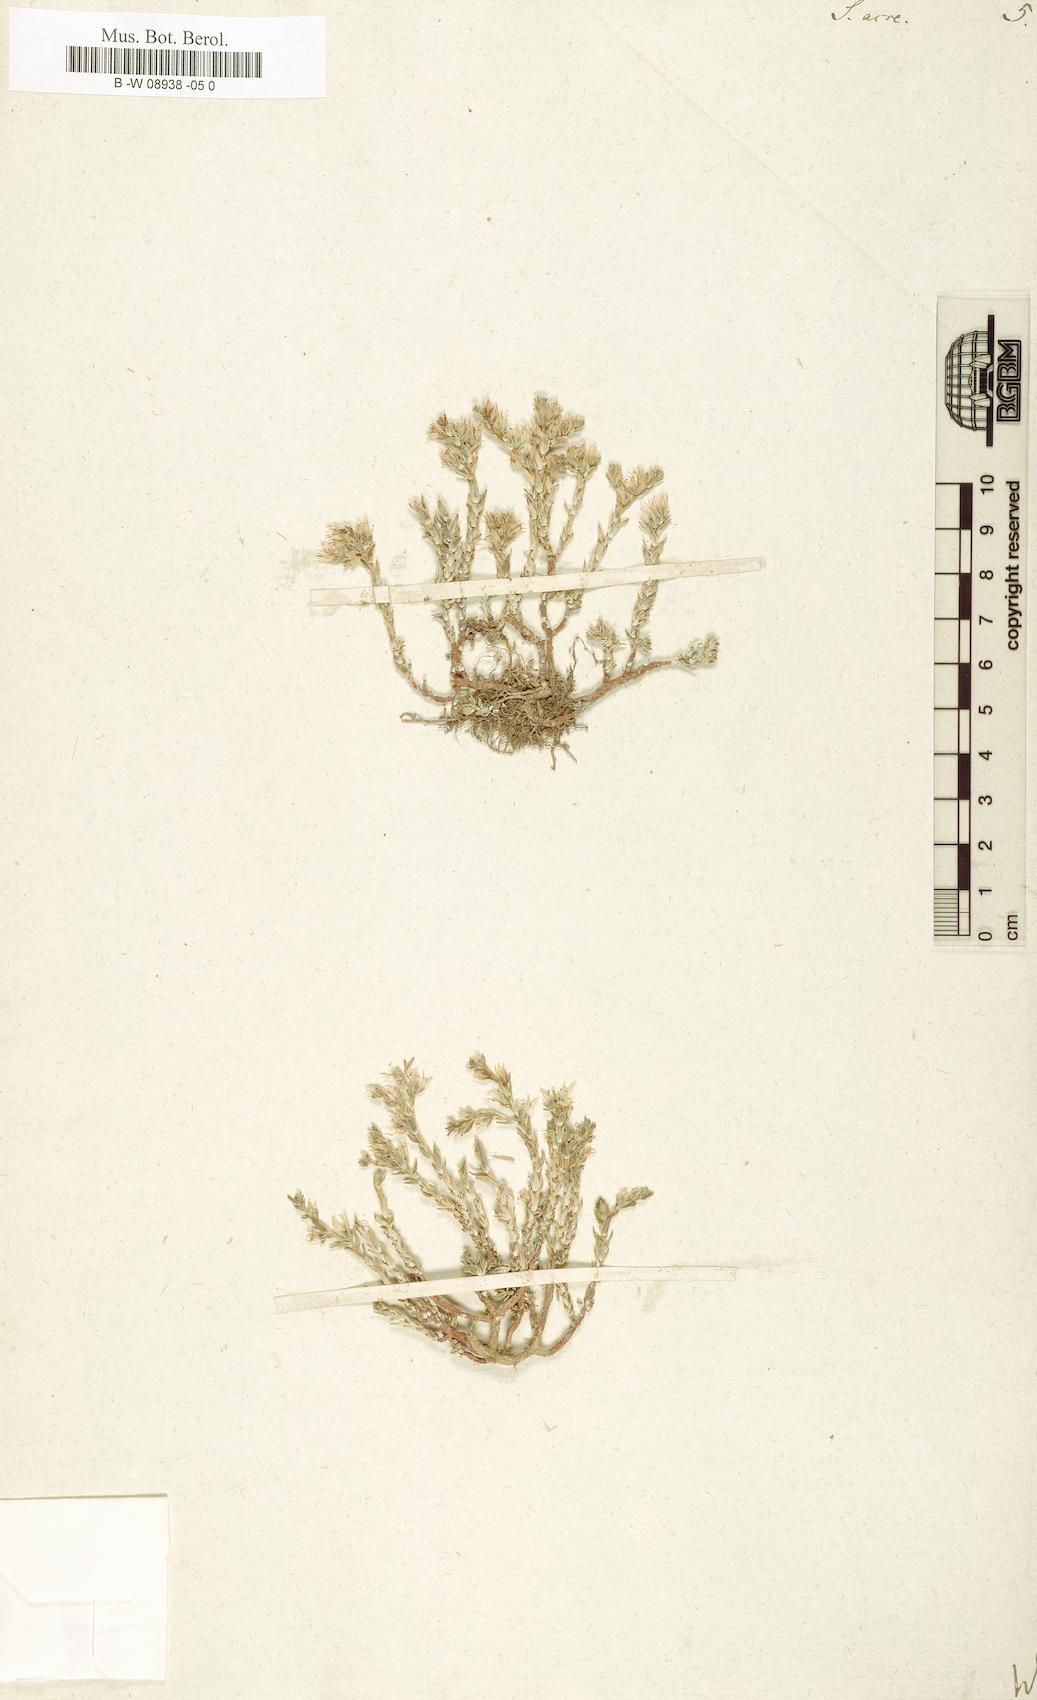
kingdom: Plantae
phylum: Tracheophyta
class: Magnoliopsida
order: Saxifragales
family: Crassulaceae
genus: Sedum
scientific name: Sedum acre
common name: Biting stonecrop
